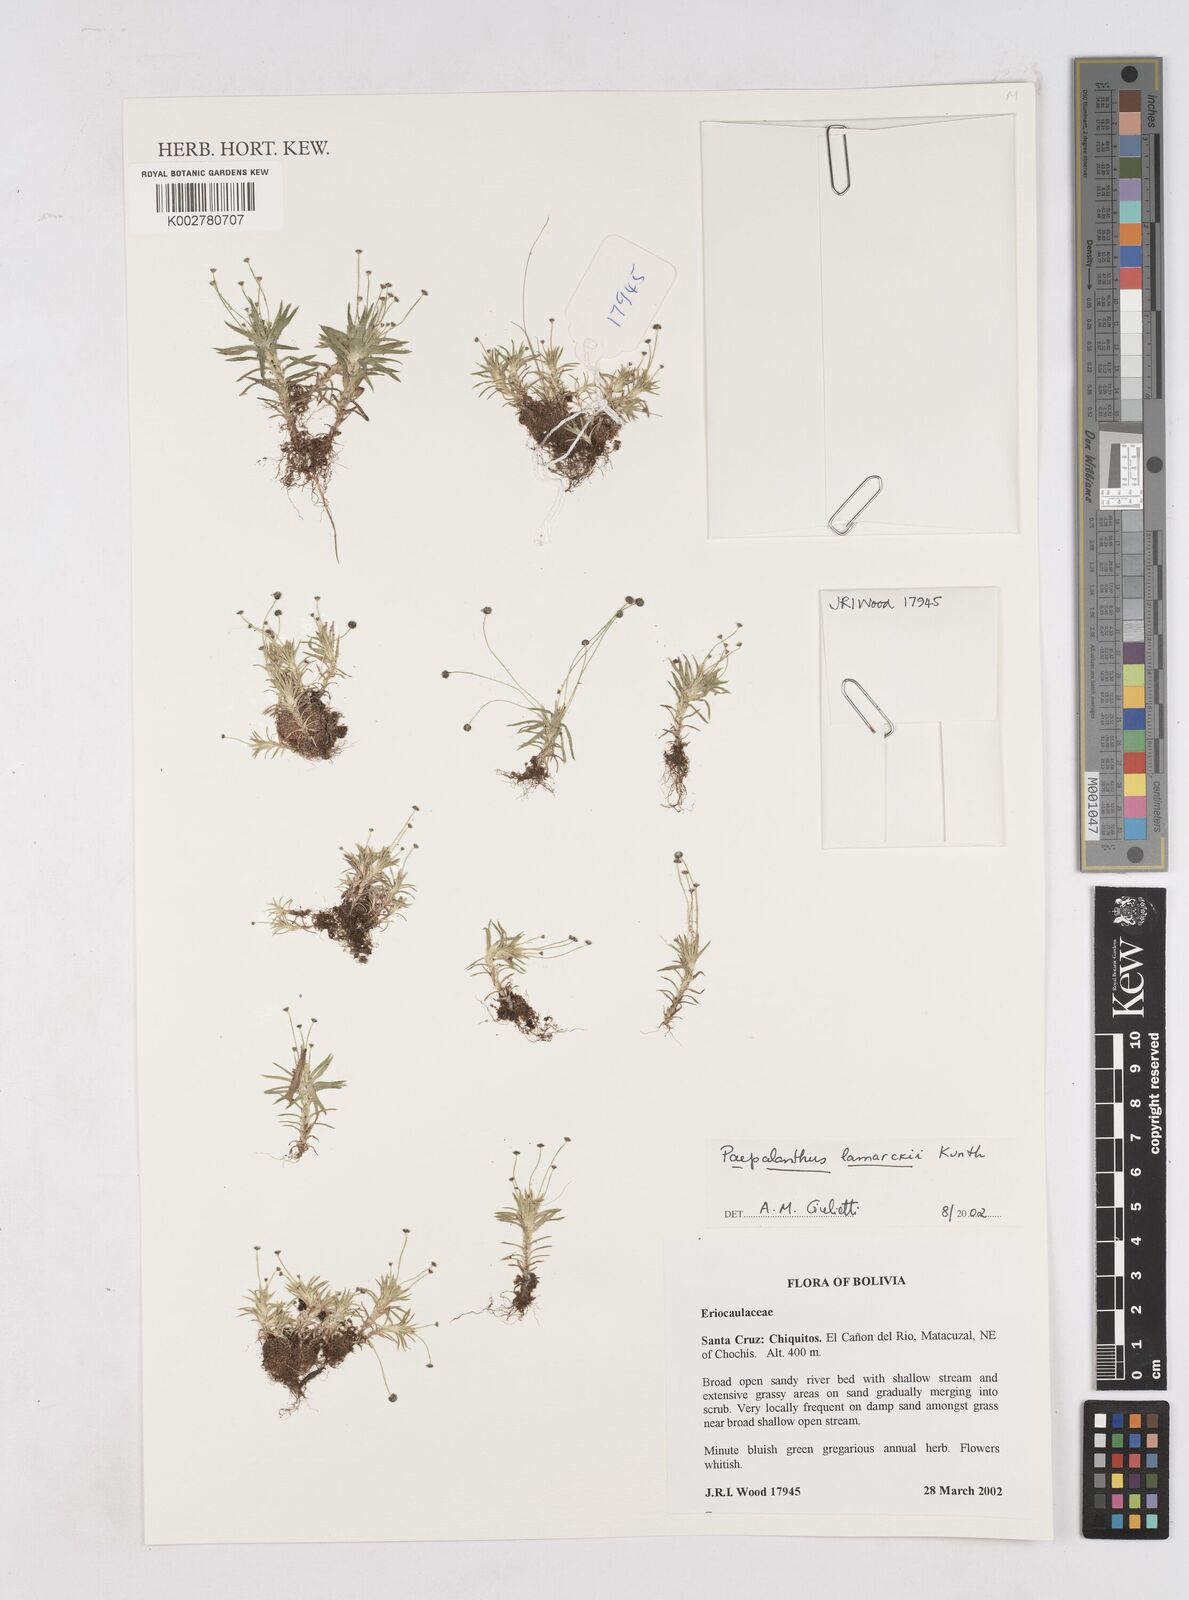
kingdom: Plantae
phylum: Tracheophyta
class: Liliopsida
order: Poales
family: Eriocaulaceae
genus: Paepalanthus
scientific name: Paepalanthus lamarckii
